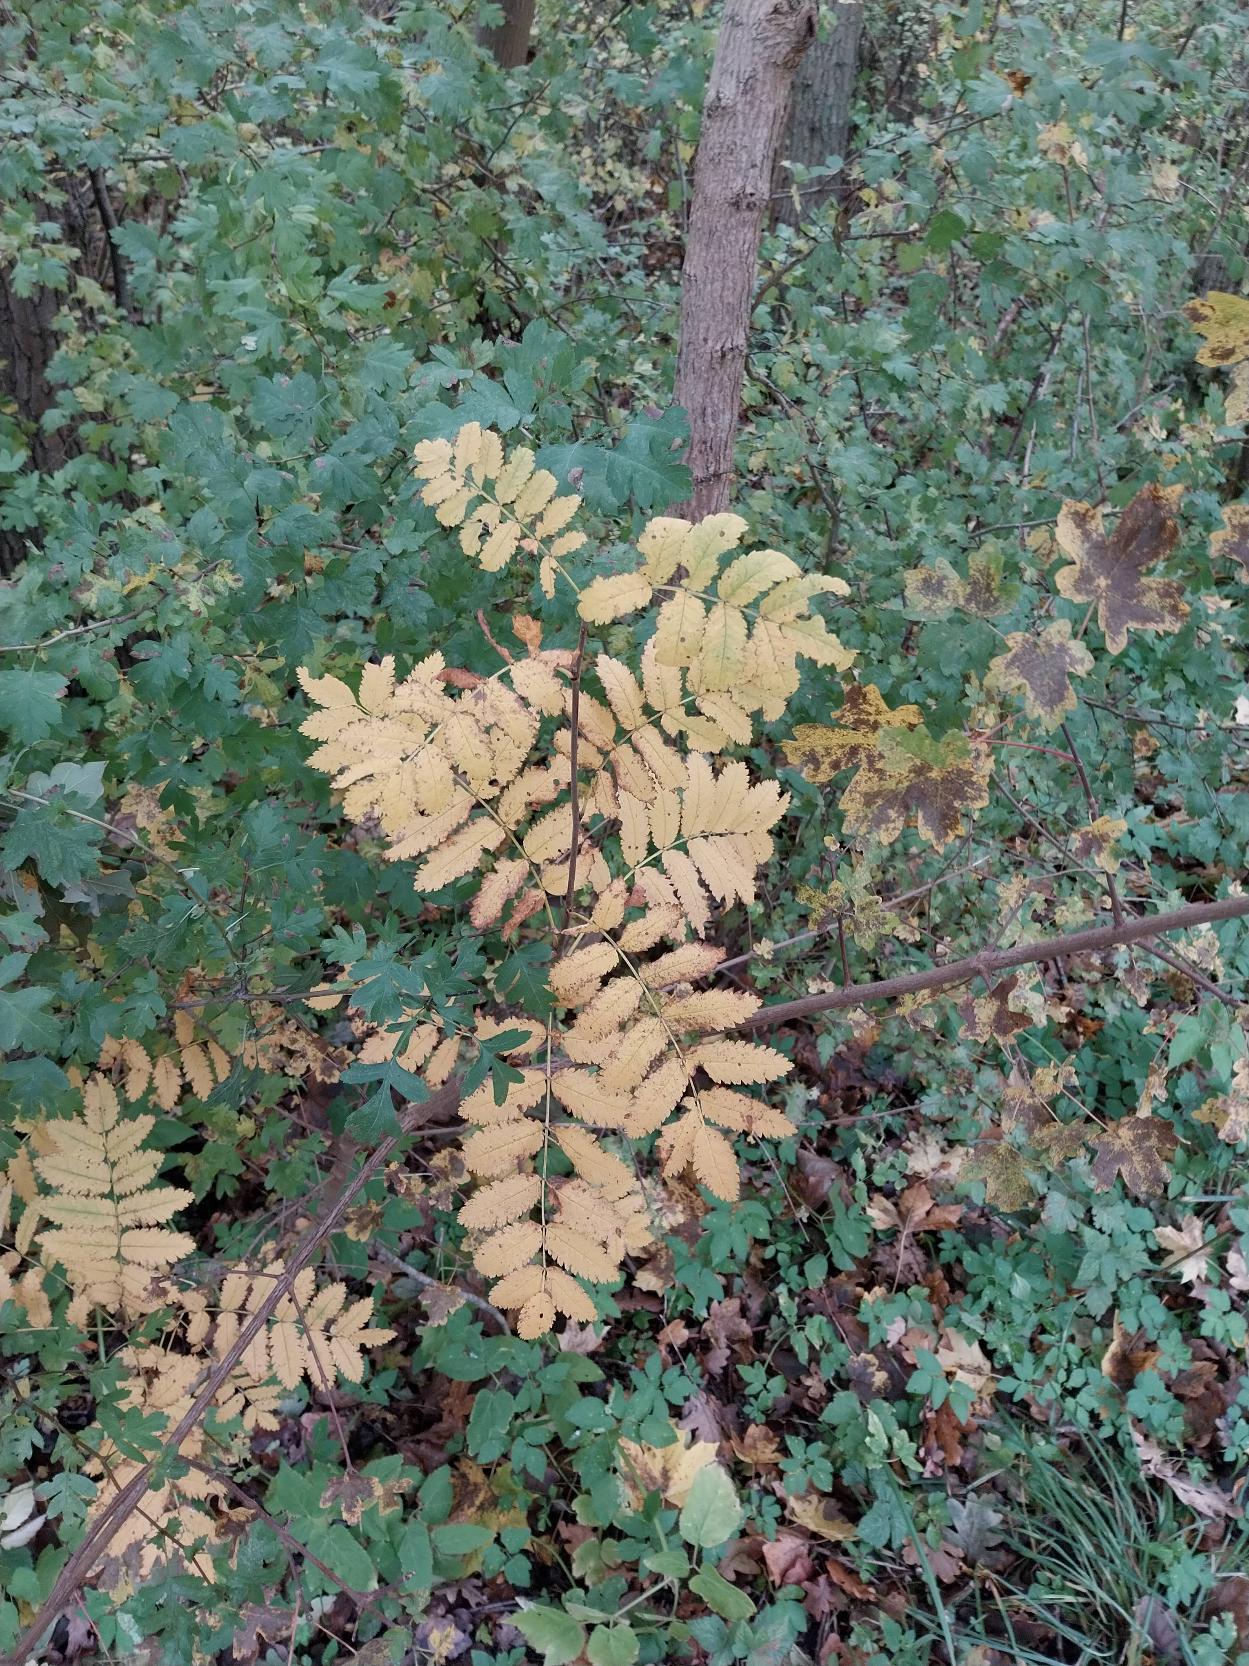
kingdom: Plantae
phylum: Tracheophyta
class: Magnoliopsida
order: Rosales
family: Rosaceae
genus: Sorbus
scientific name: Sorbus aucuparia
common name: Almindelig røn
